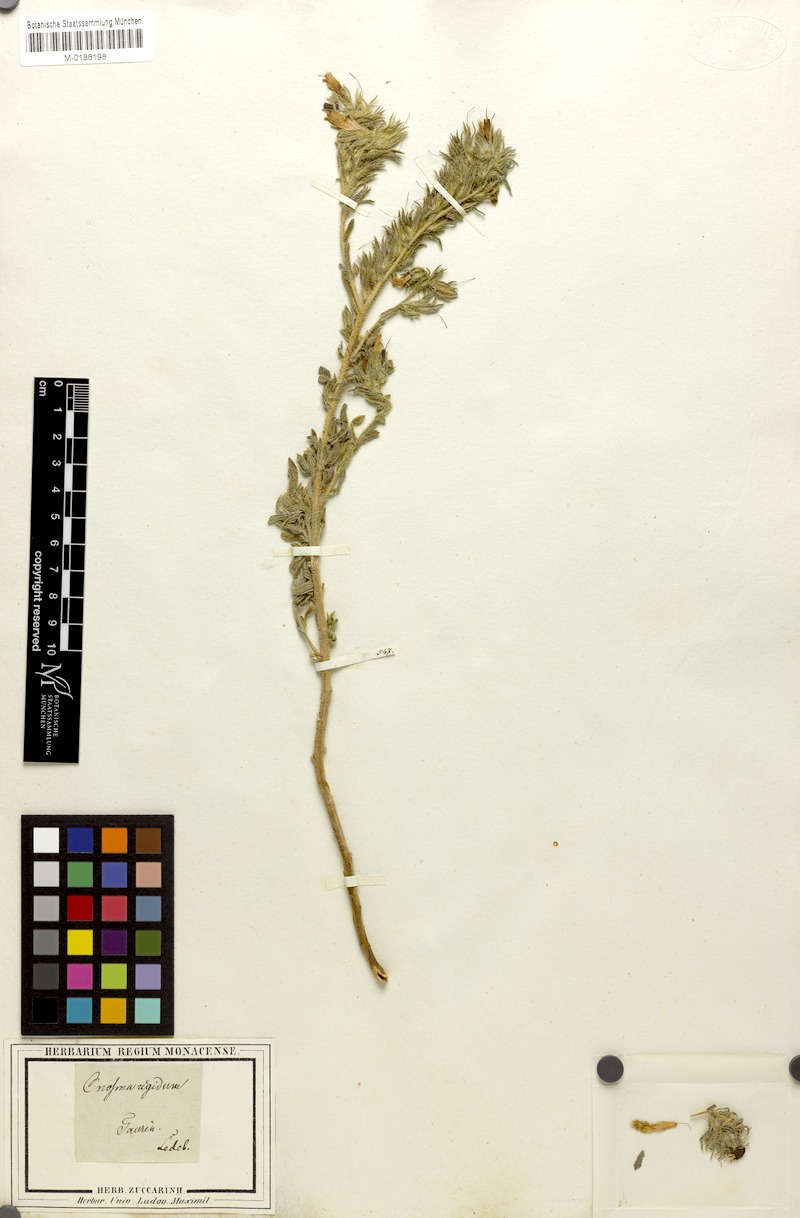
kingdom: Plantae
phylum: Tracheophyta
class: Magnoliopsida
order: Boraginales
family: Boraginaceae
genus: Onosma
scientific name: Onosma rigida
